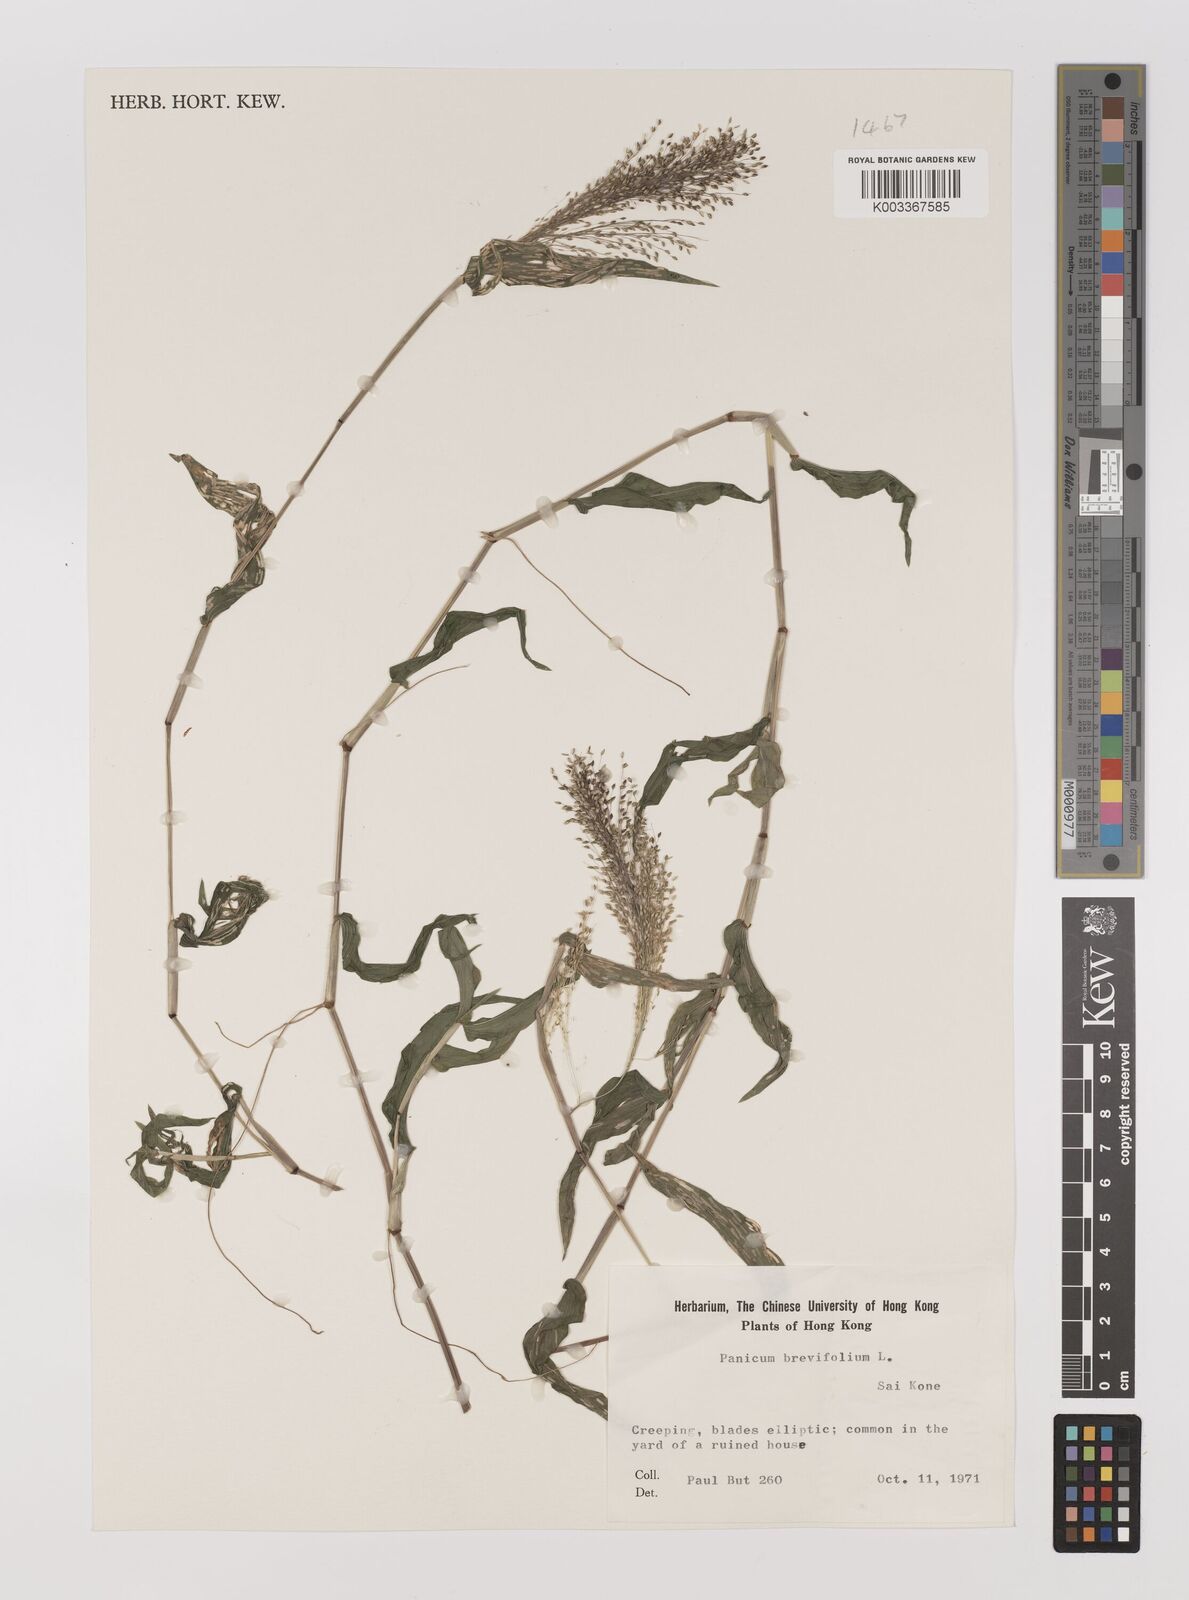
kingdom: Plantae
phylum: Tracheophyta
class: Liliopsida
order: Poales
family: Poaceae
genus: Panicum
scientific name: Panicum brevifolium
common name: Shortleaf panic grass
